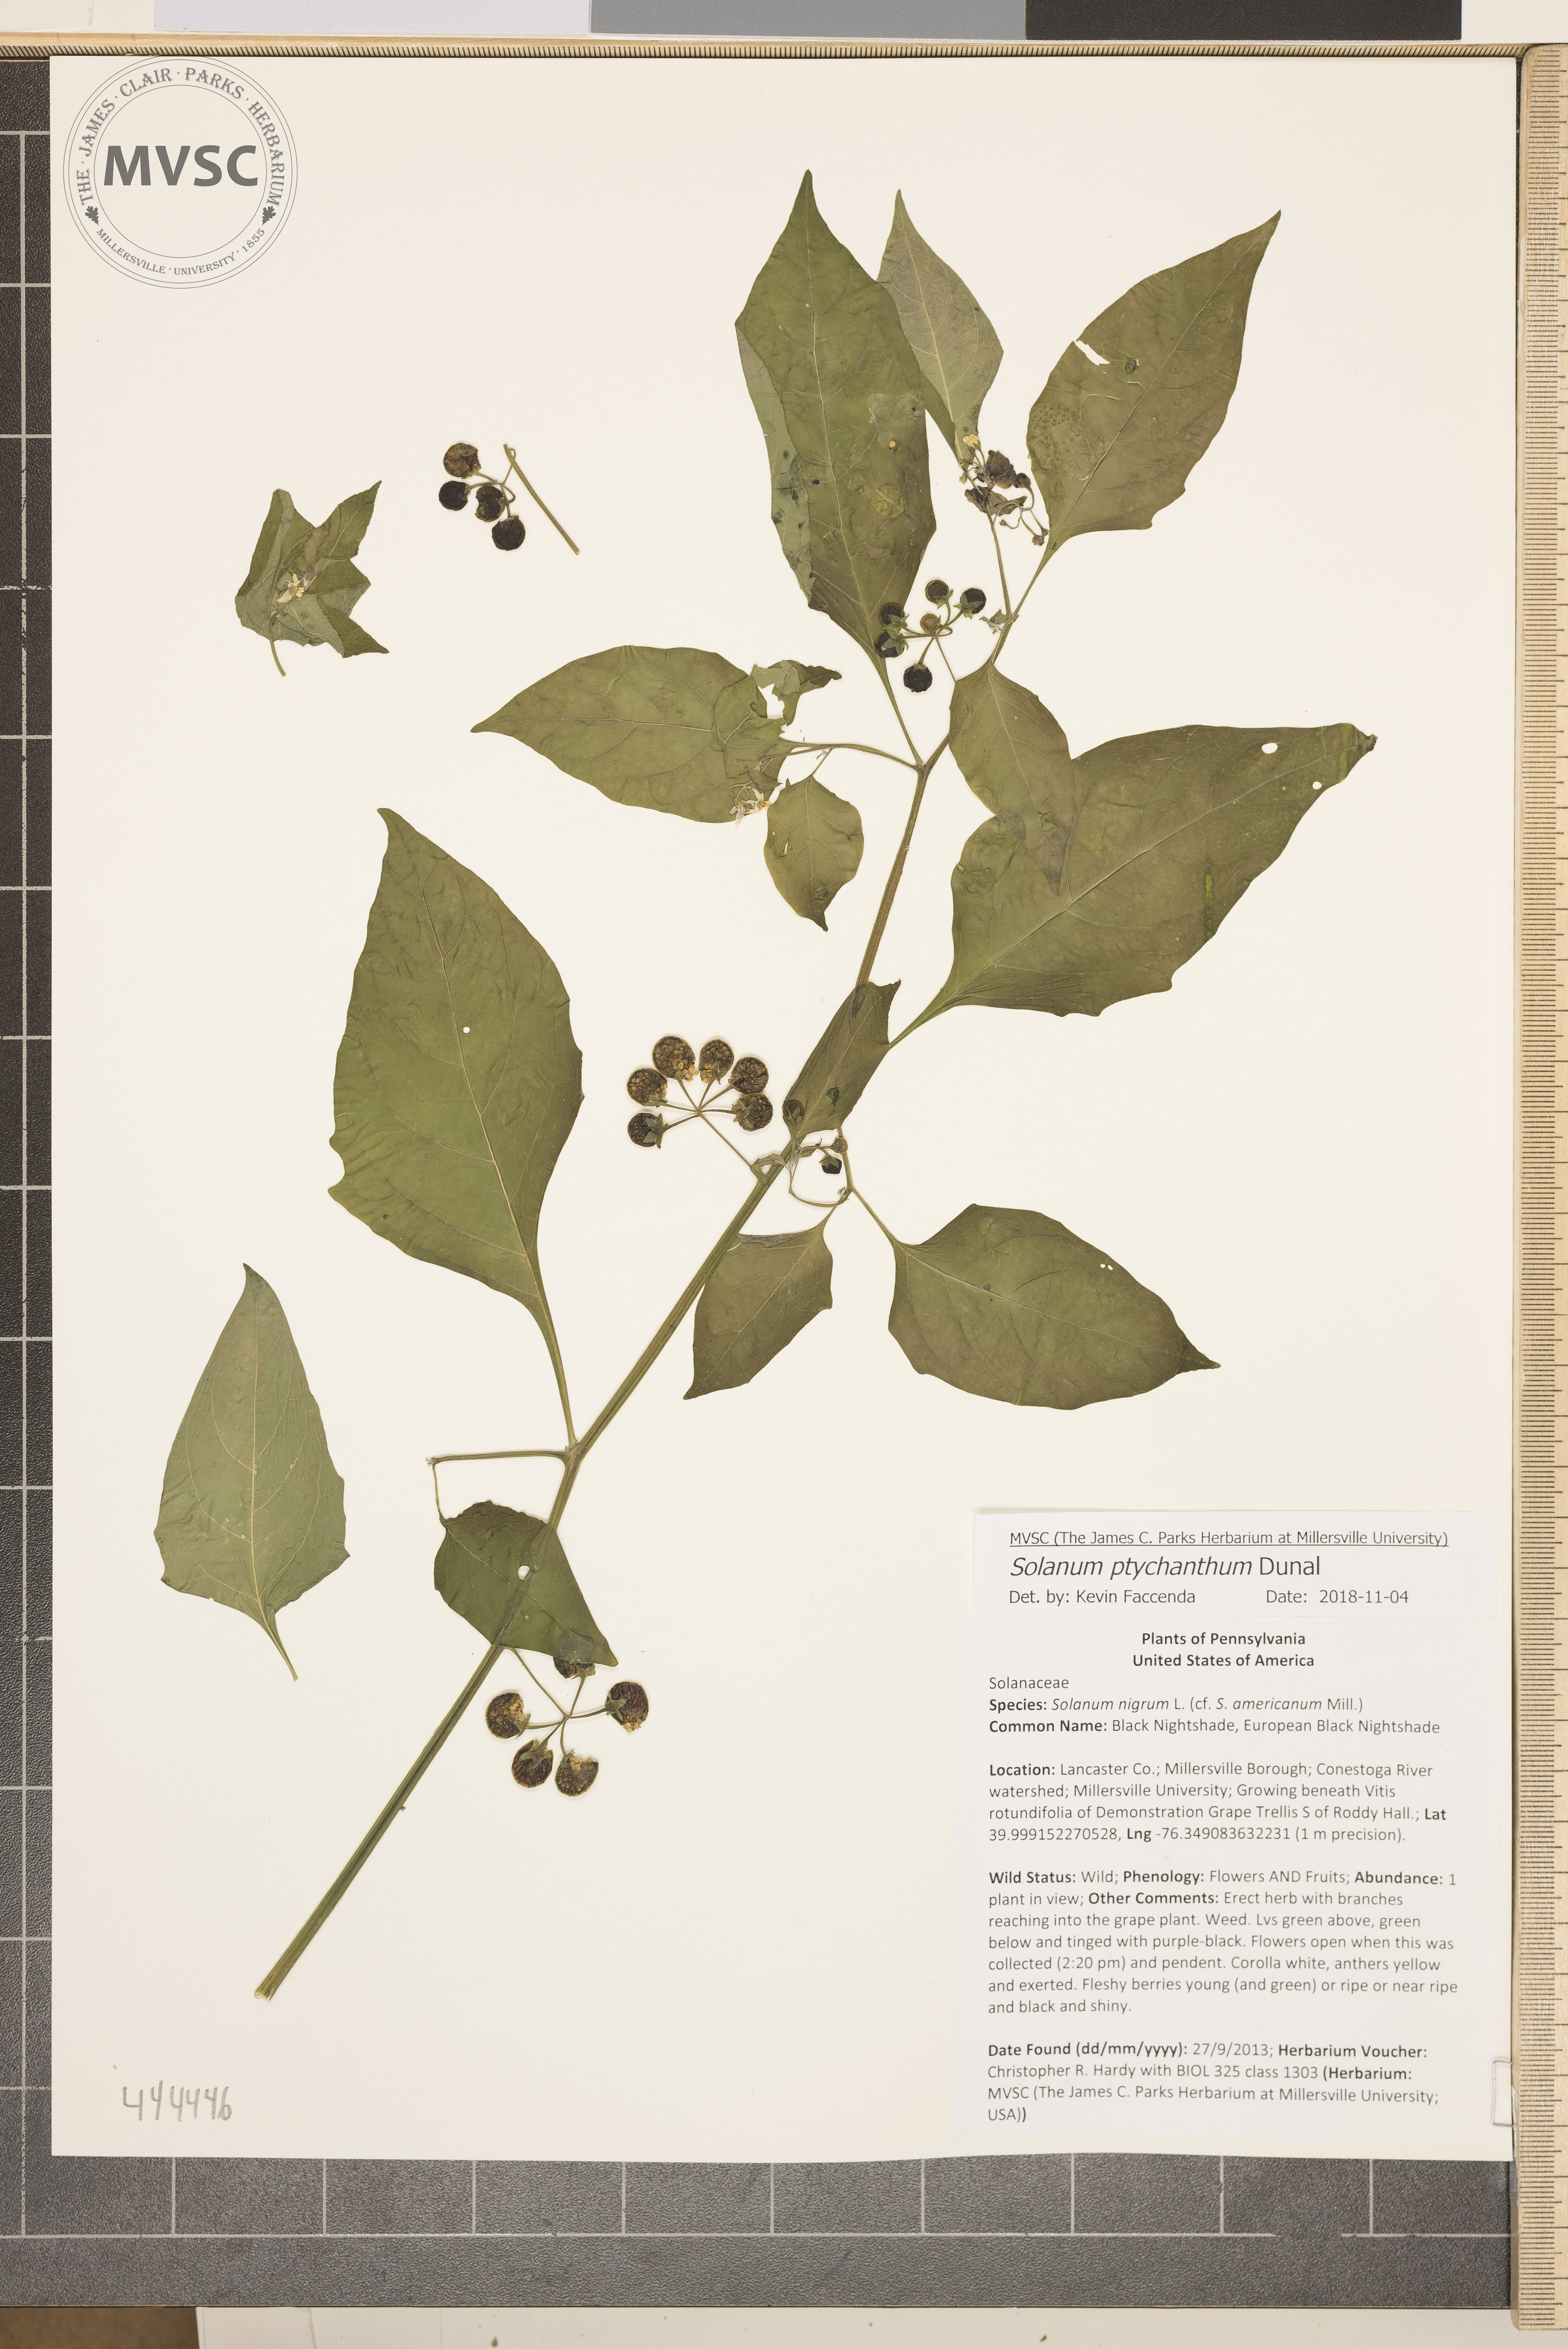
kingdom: Plantae
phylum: Tracheophyta
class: Magnoliopsida
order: Solanales
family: Solanaceae
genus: Solanum
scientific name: Solanum americanum
